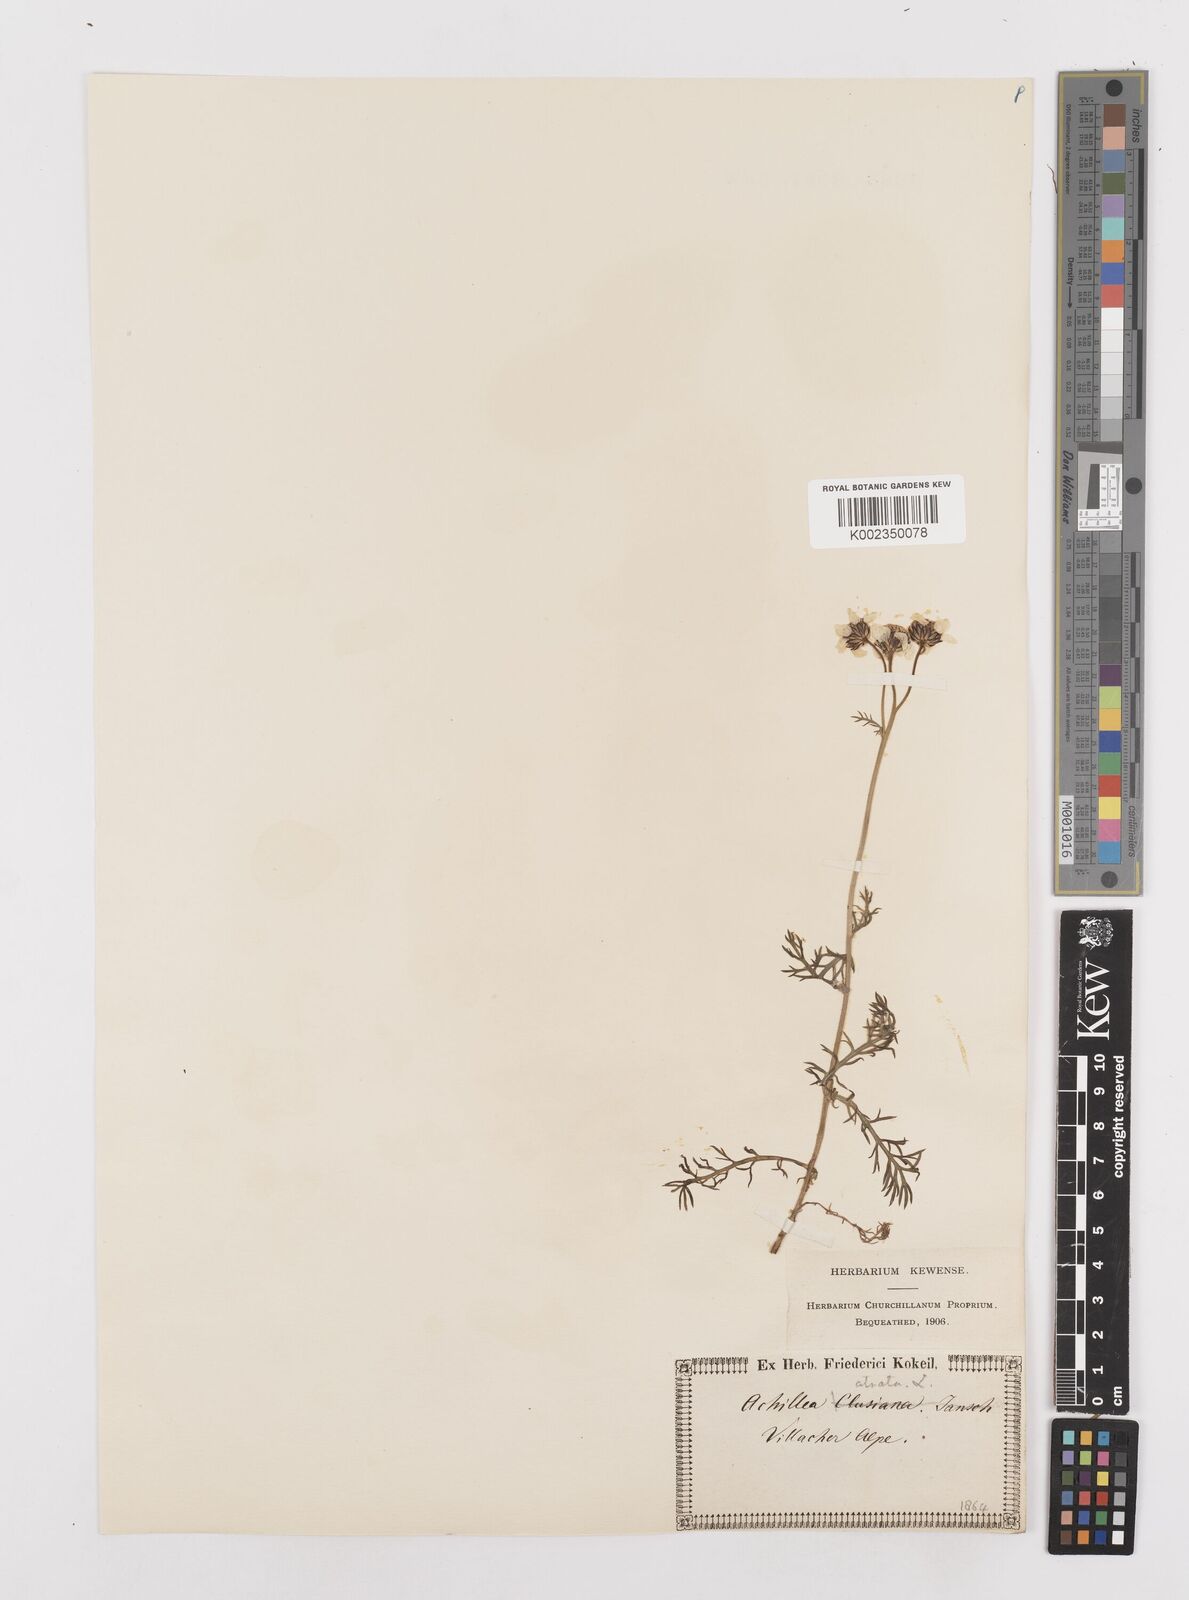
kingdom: Plantae
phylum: Tracheophyta
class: Magnoliopsida
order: Asterales
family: Asteraceae
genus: Achillea
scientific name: Achillea atrata
